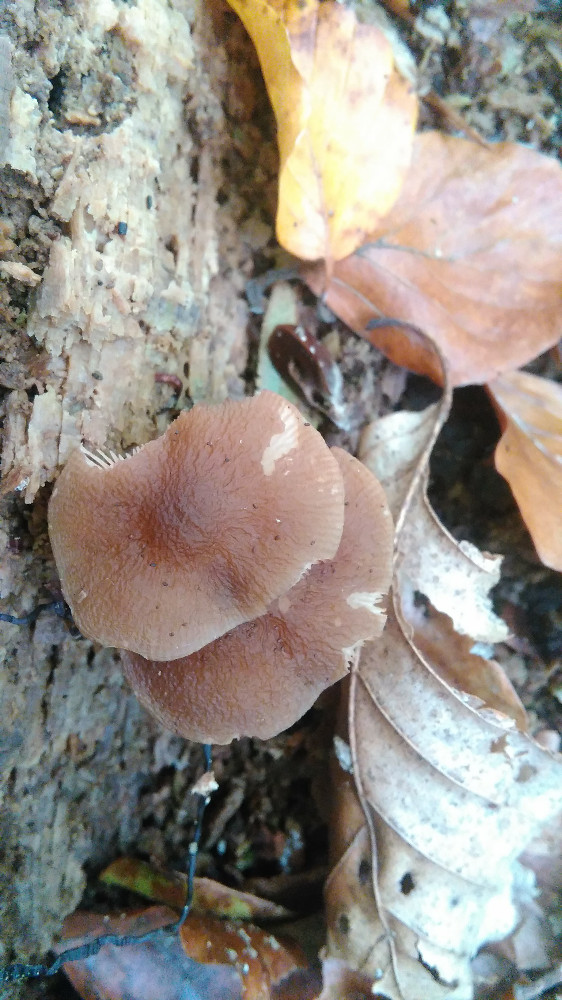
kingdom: Fungi
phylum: Basidiomycota
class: Agaricomycetes
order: Agaricales
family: Pluteaceae
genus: Pluteus
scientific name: Pluteus phlebophorus
